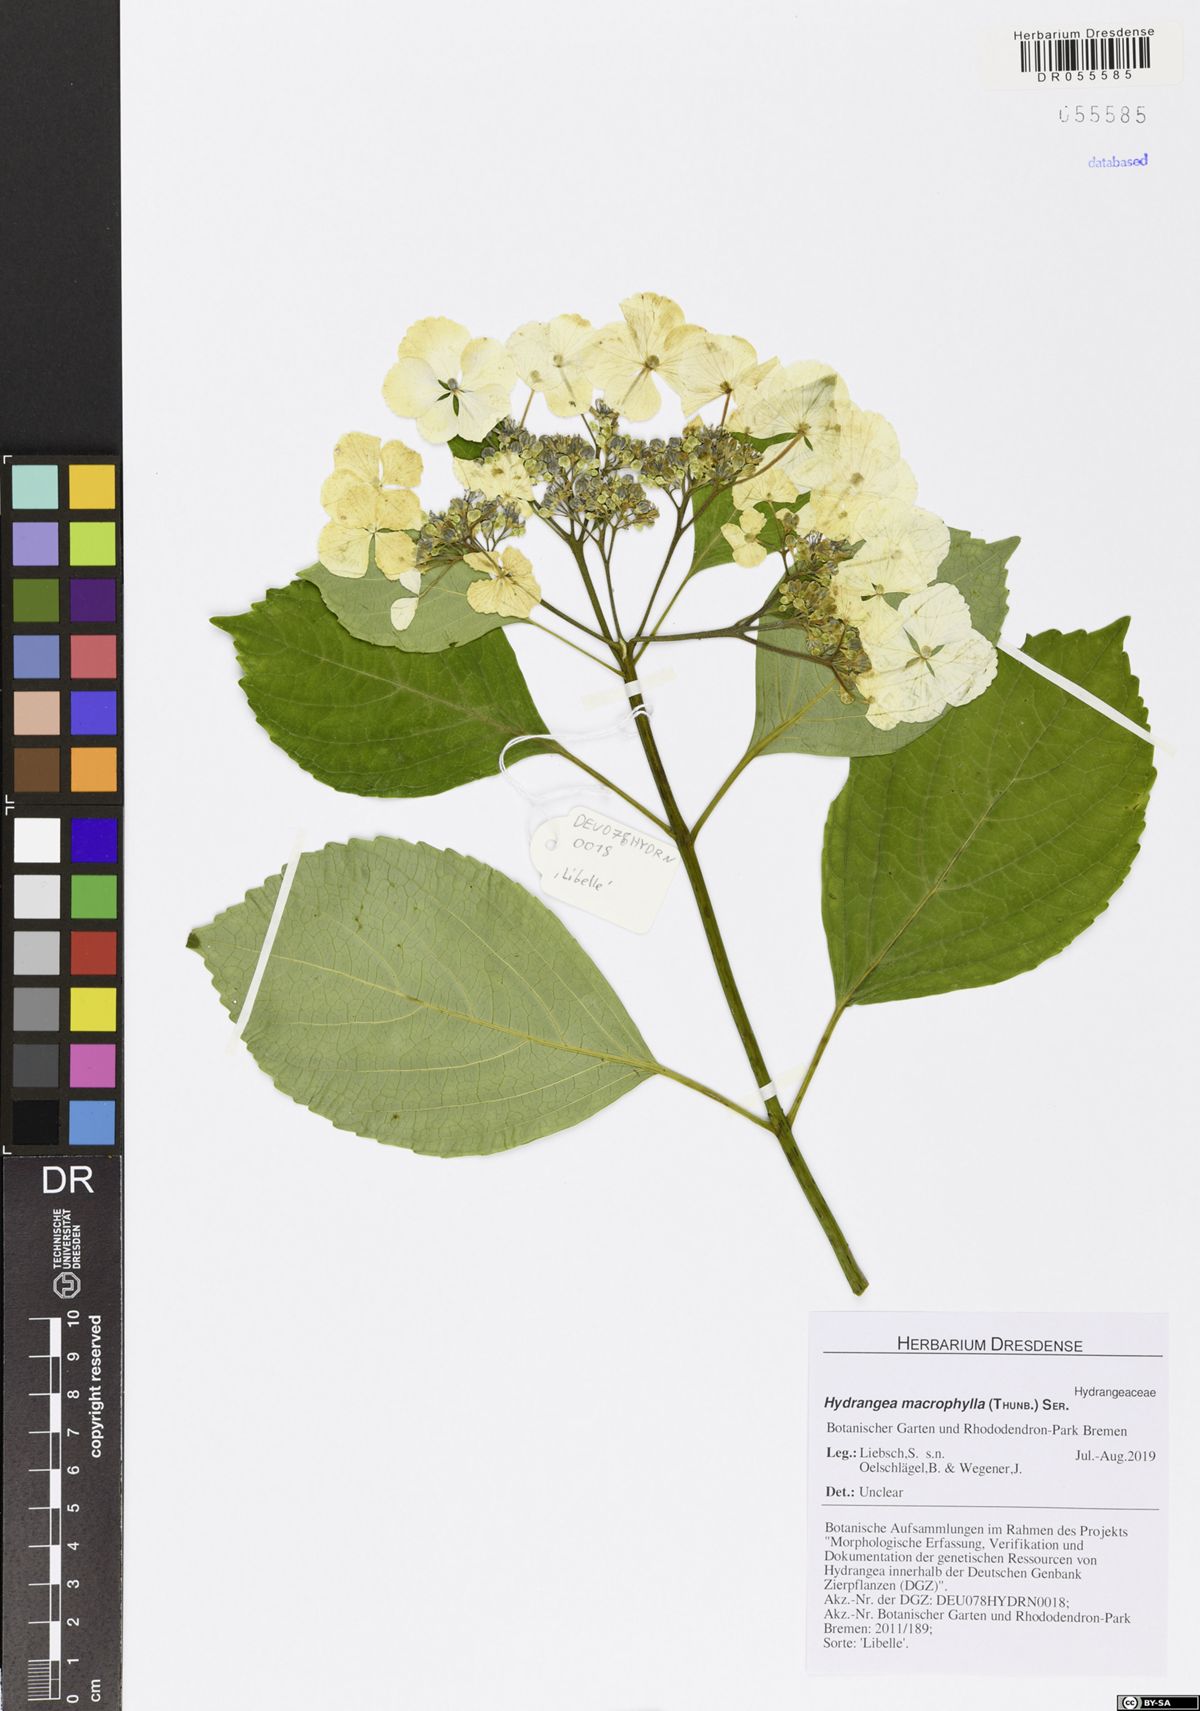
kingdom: Plantae
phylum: Tracheophyta
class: Magnoliopsida
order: Cornales
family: Hydrangeaceae
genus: Hydrangea
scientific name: Hydrangea macrophylla
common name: Hydrangea
